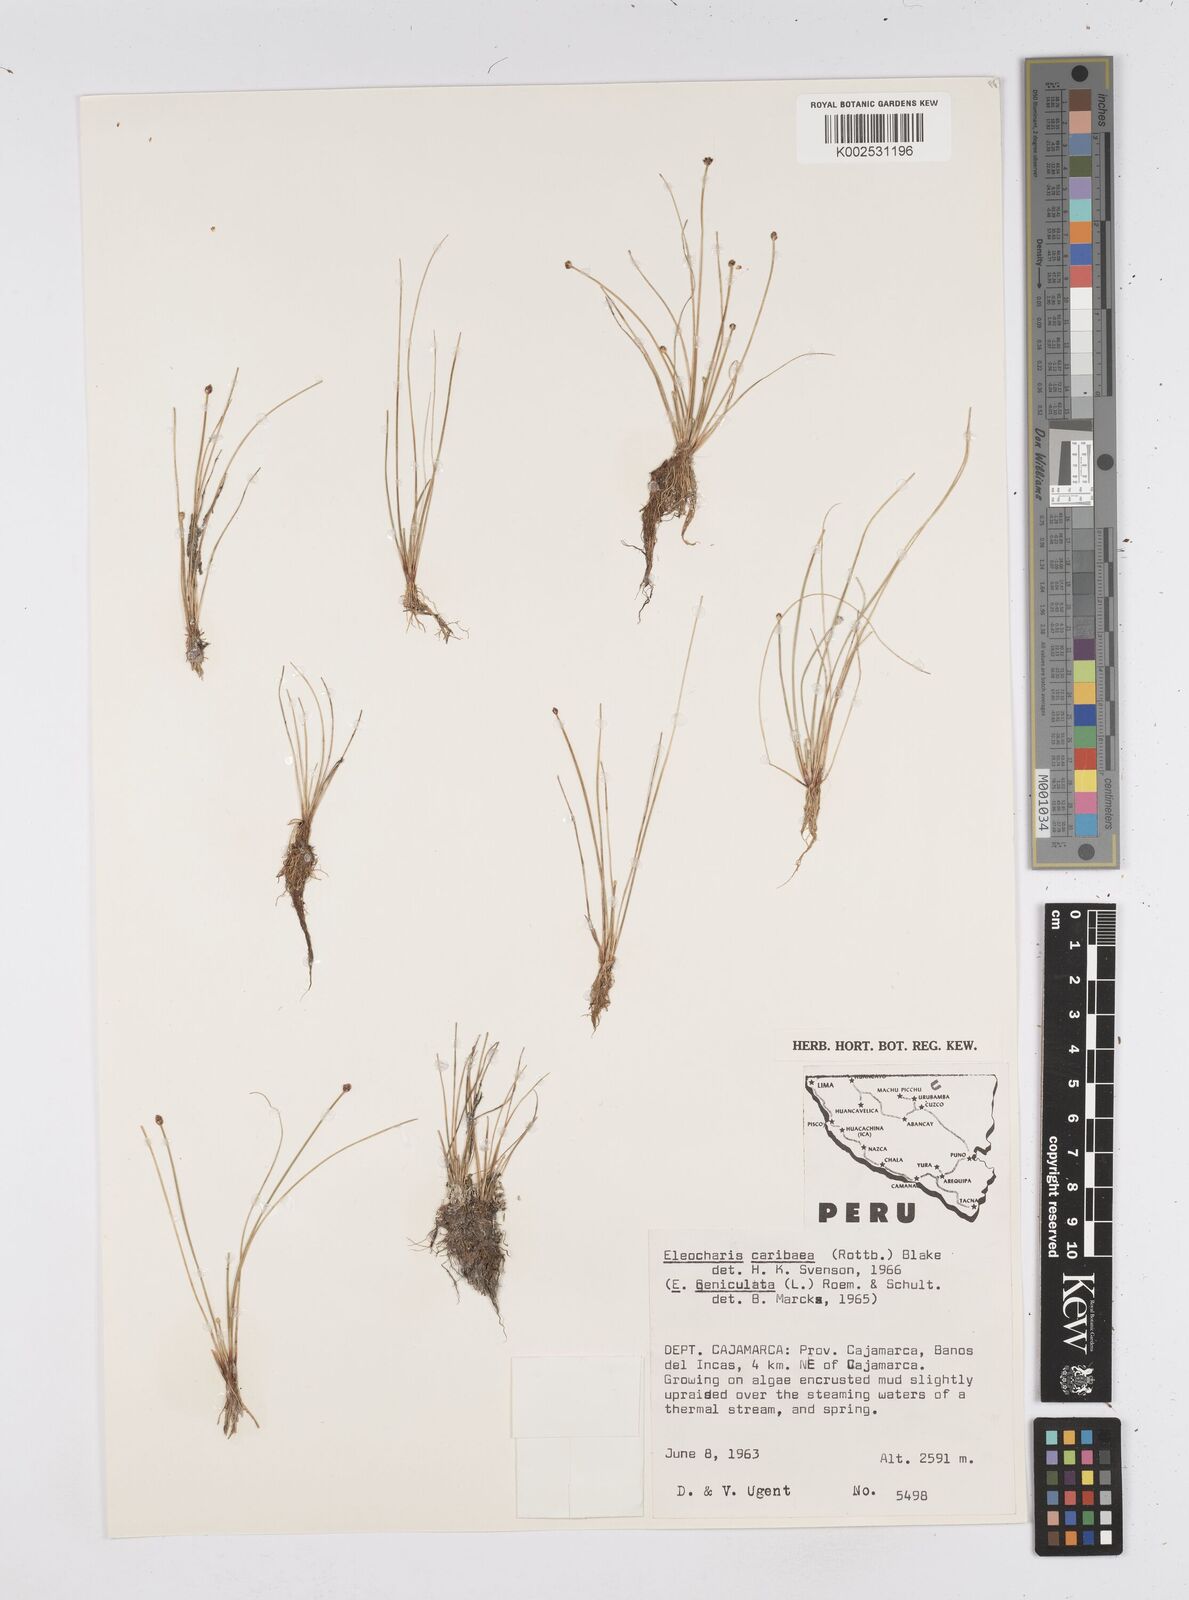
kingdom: Plantae
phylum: Tracheophyta
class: Liliopsida
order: Poales
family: Cyperaceae
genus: Eleocharis
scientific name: Eleocharis geniculata
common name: Canada spikesedge
